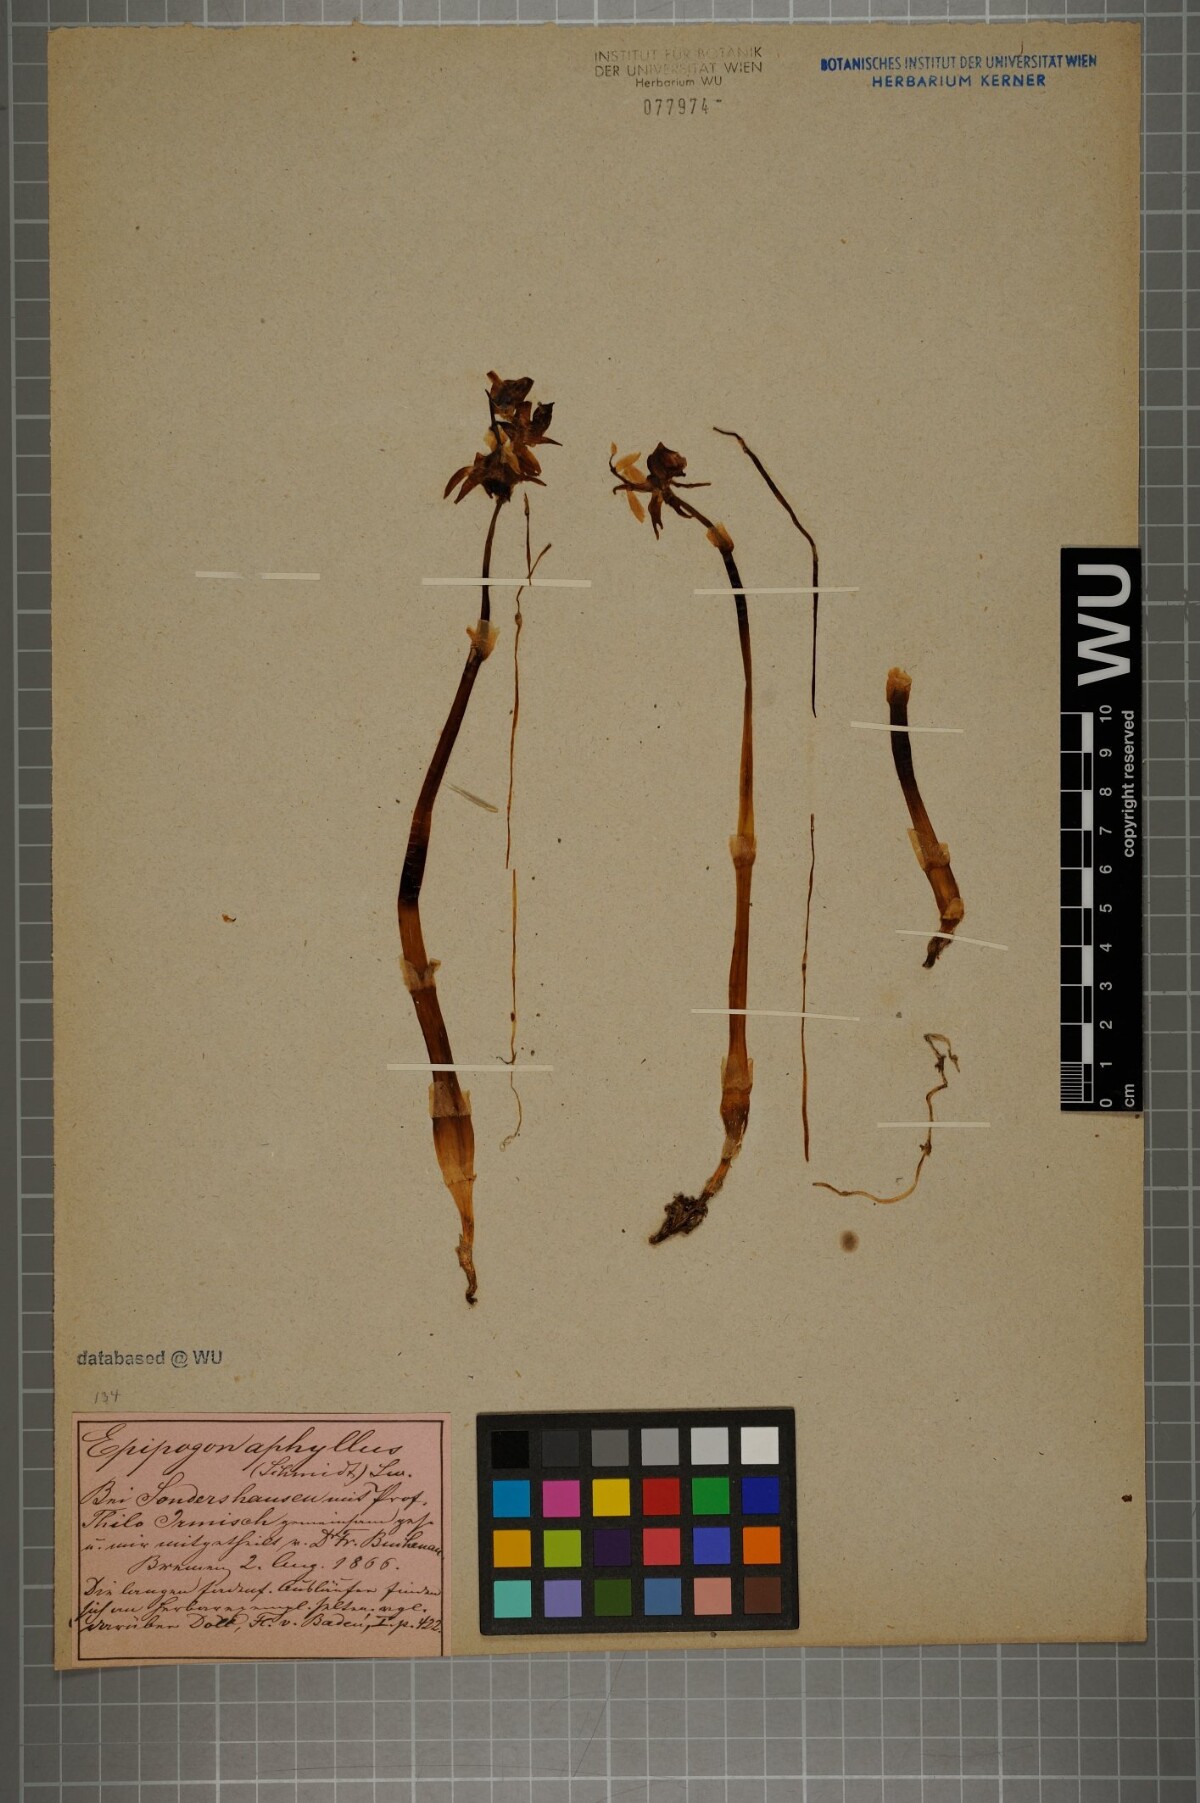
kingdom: Plantae
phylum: Tracheophyta
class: Liliopsida
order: Asparagales
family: Orchidaceae
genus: Epipogium
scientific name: Epipogium aphyllum
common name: Ghost orchid
